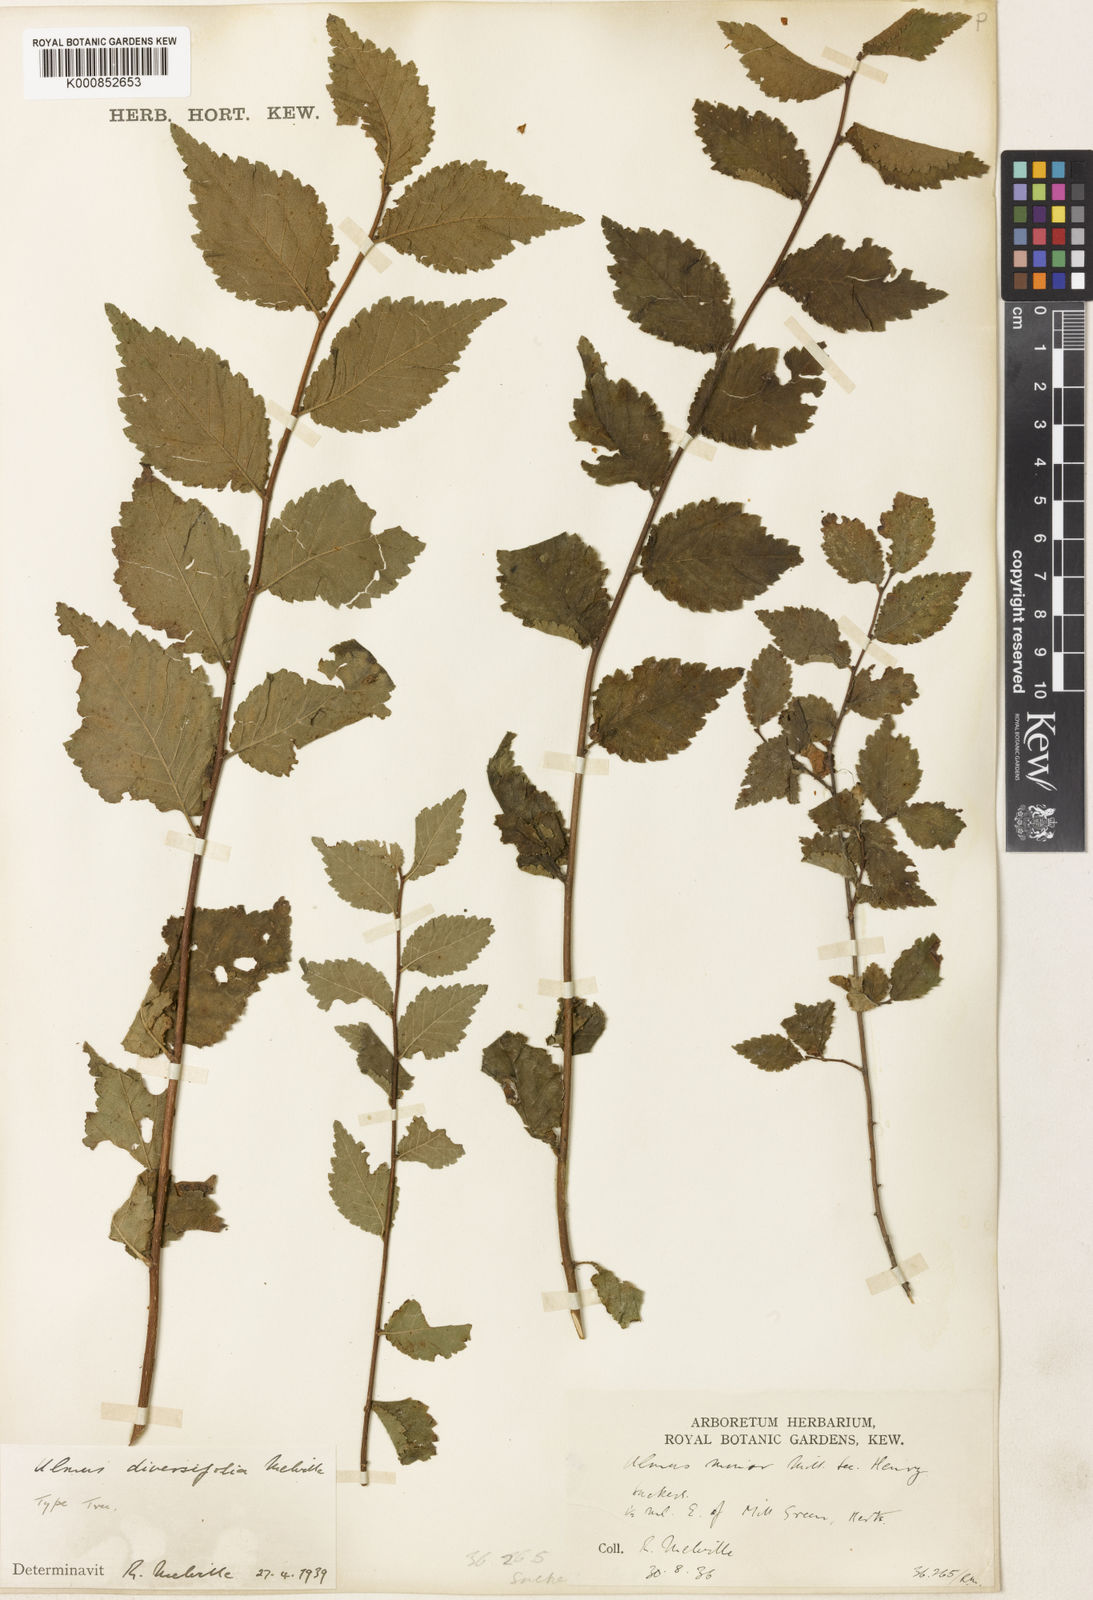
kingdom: Plantae
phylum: Tracheophyta
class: Magnoliopsida
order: Rosales
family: Ulmaceae
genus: Ulmus
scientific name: Ulmus minor
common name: Small-leaved elm
